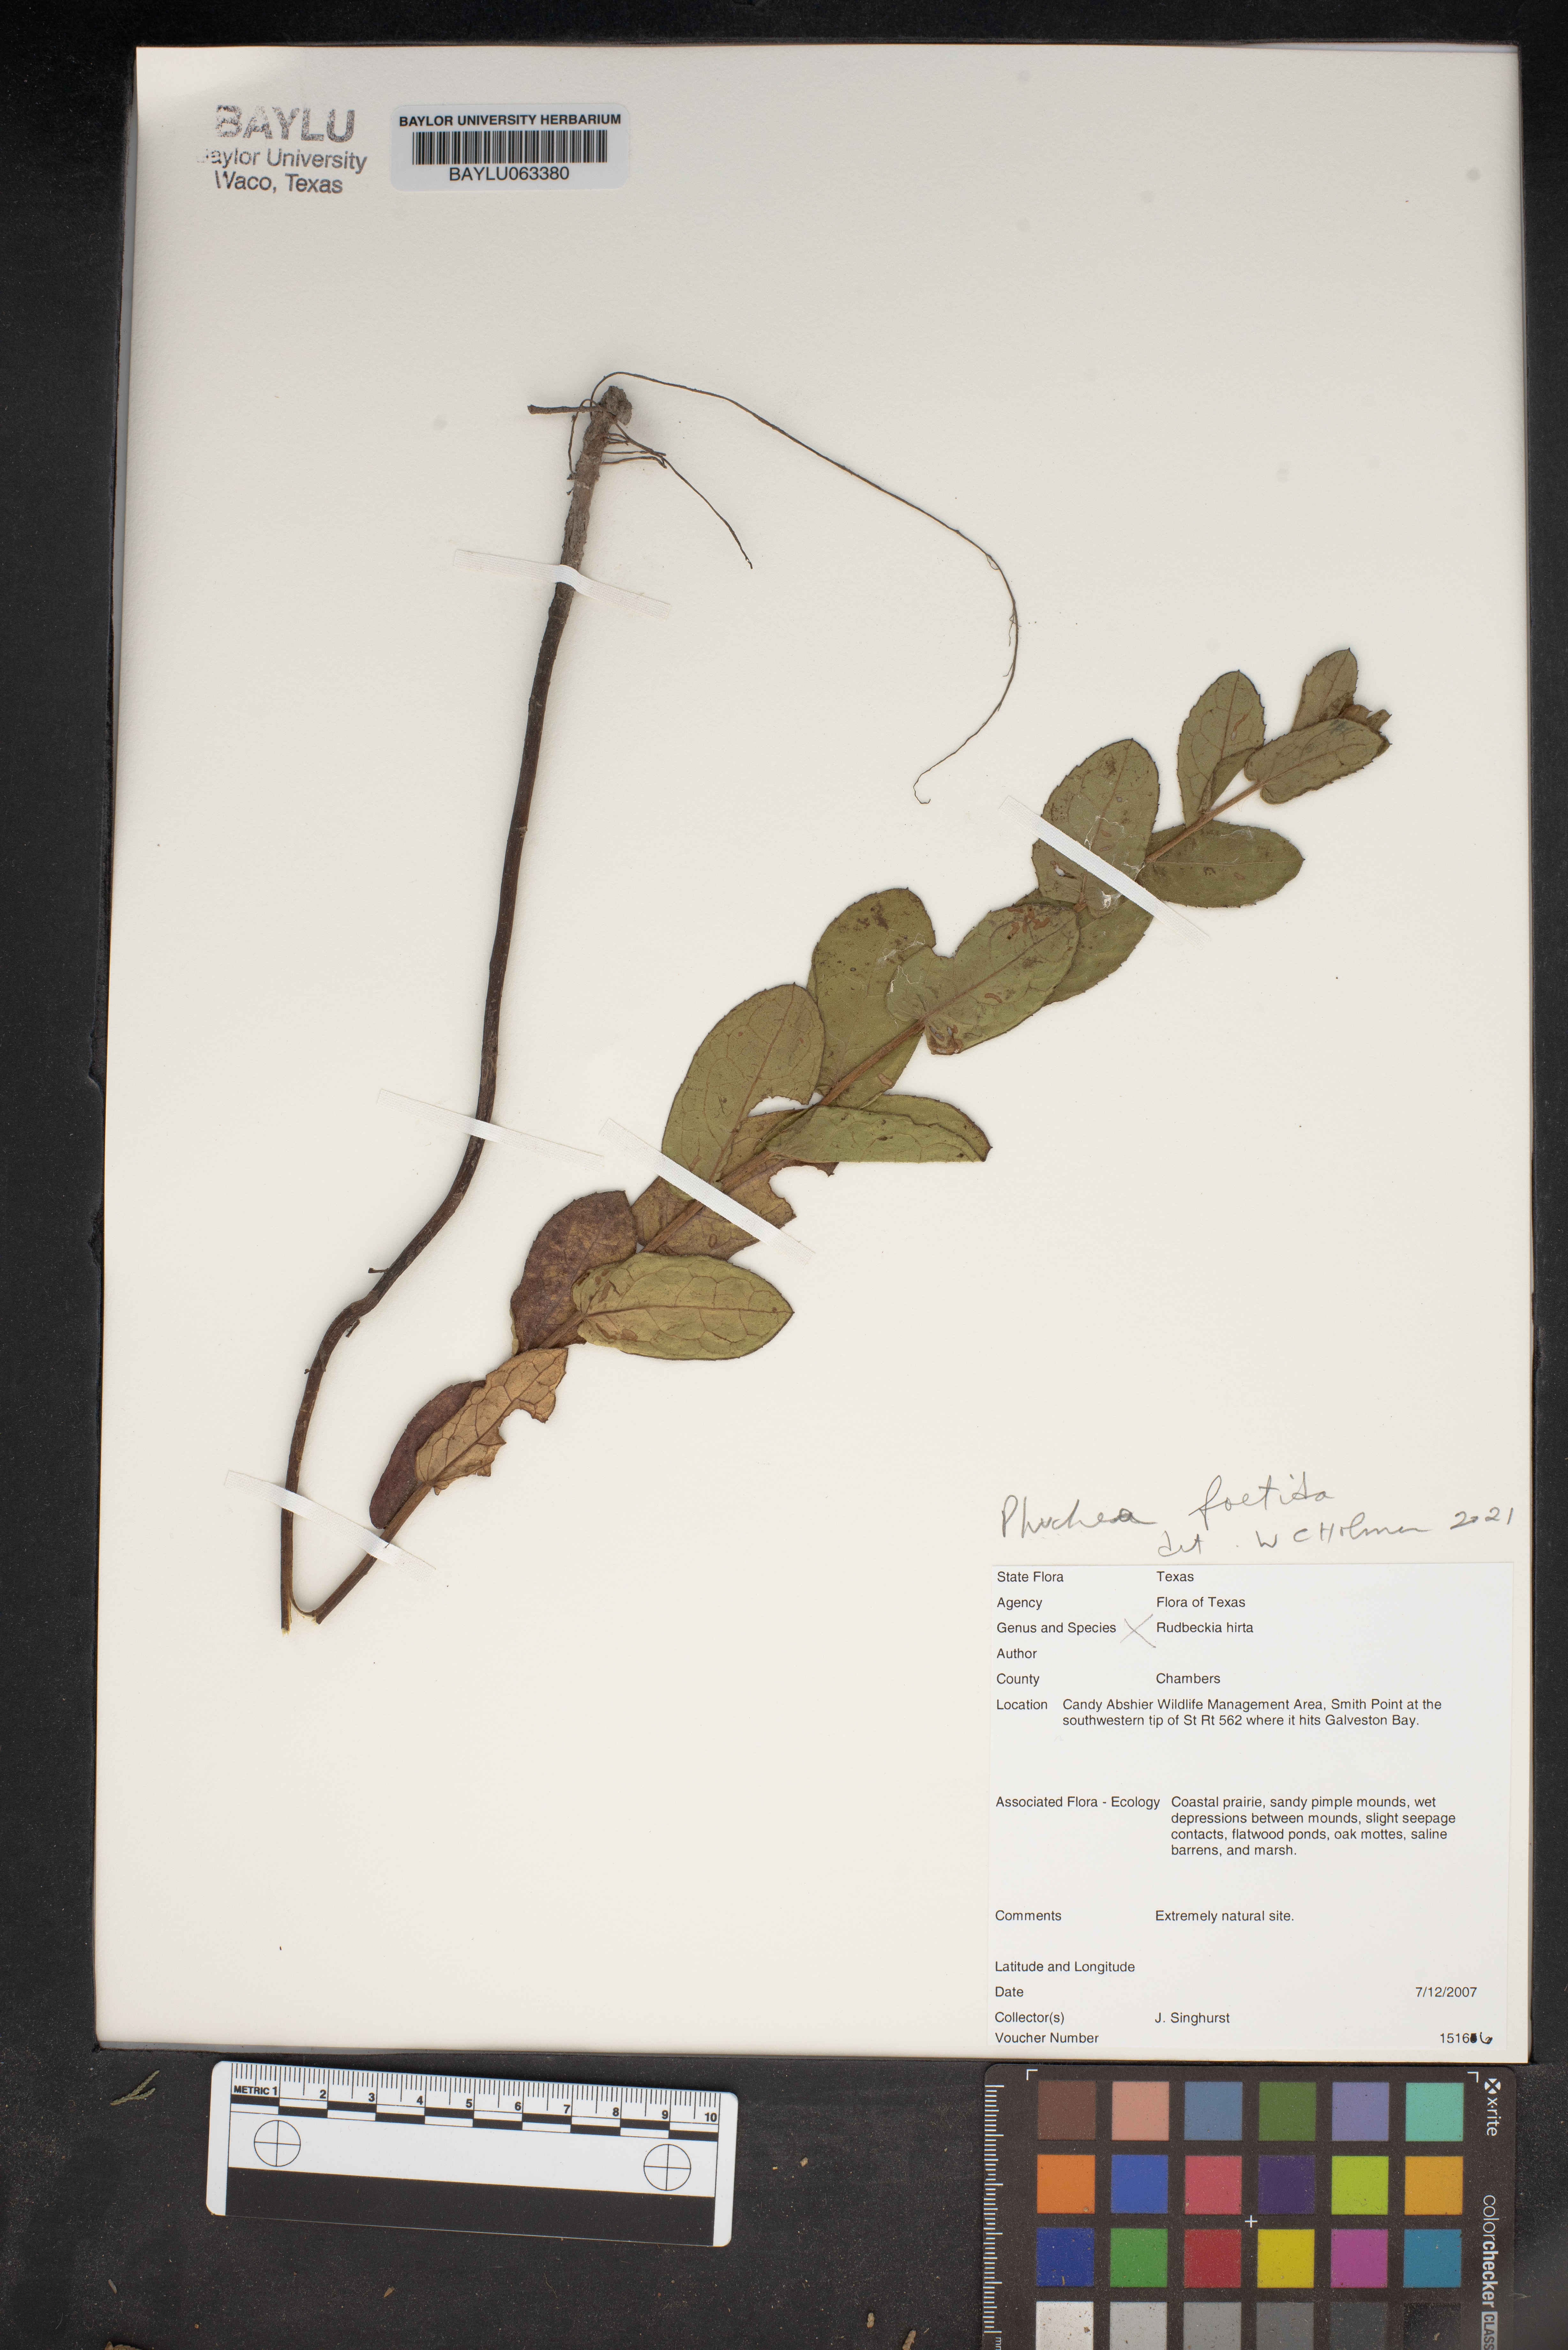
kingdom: Plantae
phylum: Tracheophyta
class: Magnoliopsida
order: Asterales
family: Asteraceae
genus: Rudbeckia
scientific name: Rudbeckia hirta
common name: Black-eyed-susan
